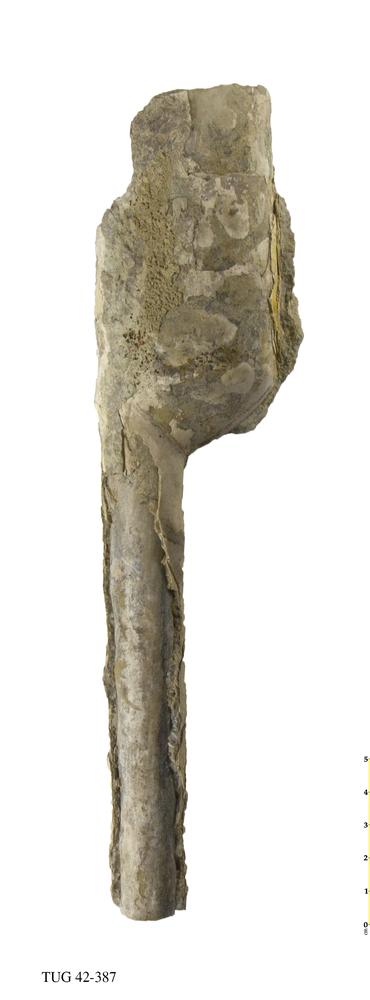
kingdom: Animalia
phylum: Mollusca
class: Cephalopoda
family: Endoceratidae
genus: Proterovaginoceras
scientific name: Proterovaginoceras Endoceras incognitum
